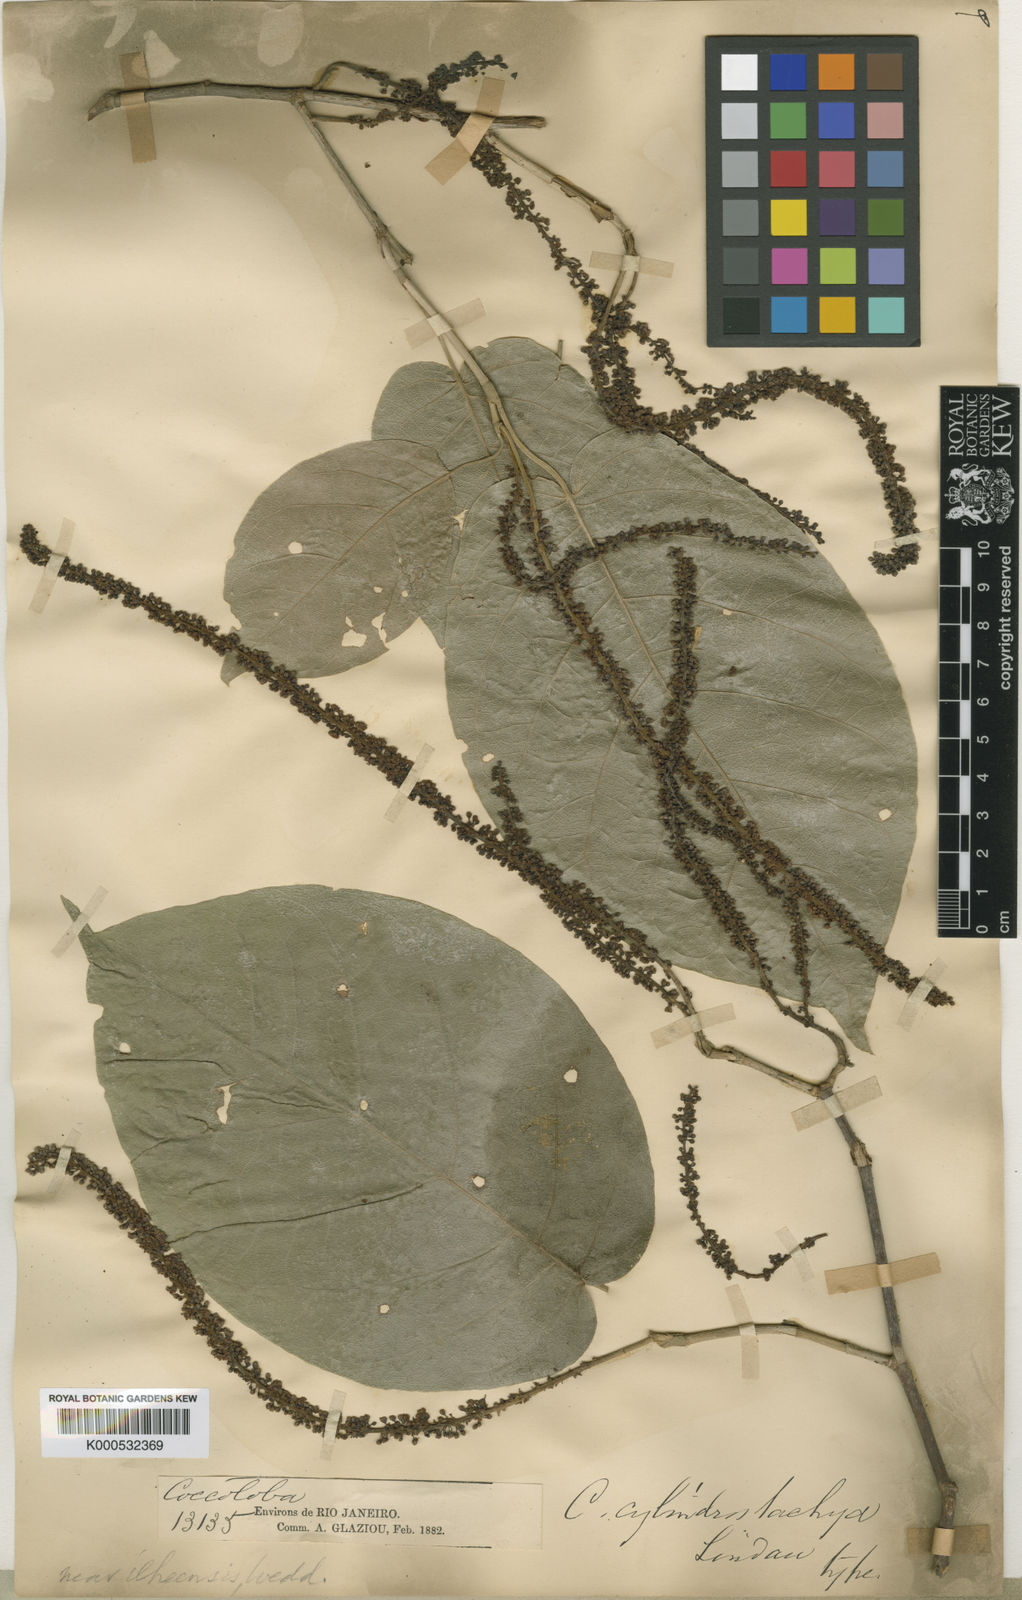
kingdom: Plantae
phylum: Tracheophyta
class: Magnoliopsida
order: Caryophyllales
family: Polygonaceae
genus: Coccoloba
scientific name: Coccoloba
